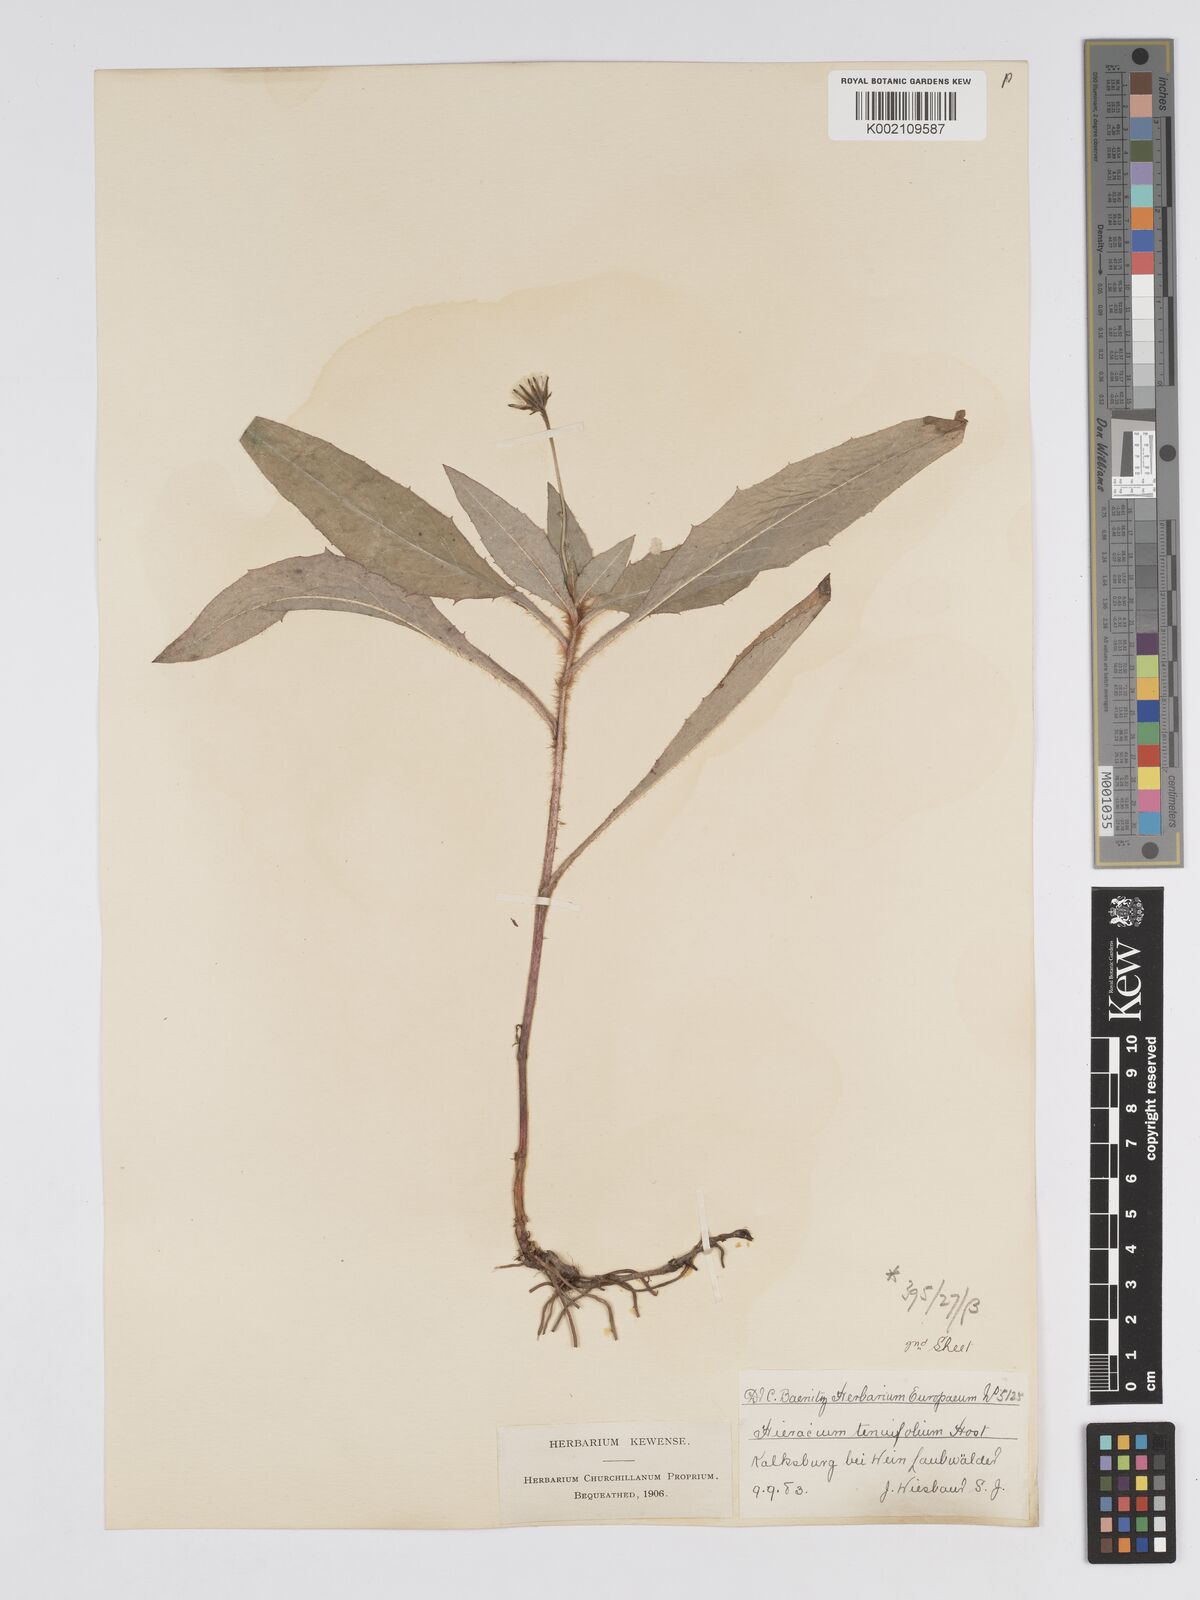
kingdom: Plantae
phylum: Tracheophyta
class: Magnoliopsida
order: Asterales
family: Asteraceae
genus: Hieracium
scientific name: Hieracium racemosum
